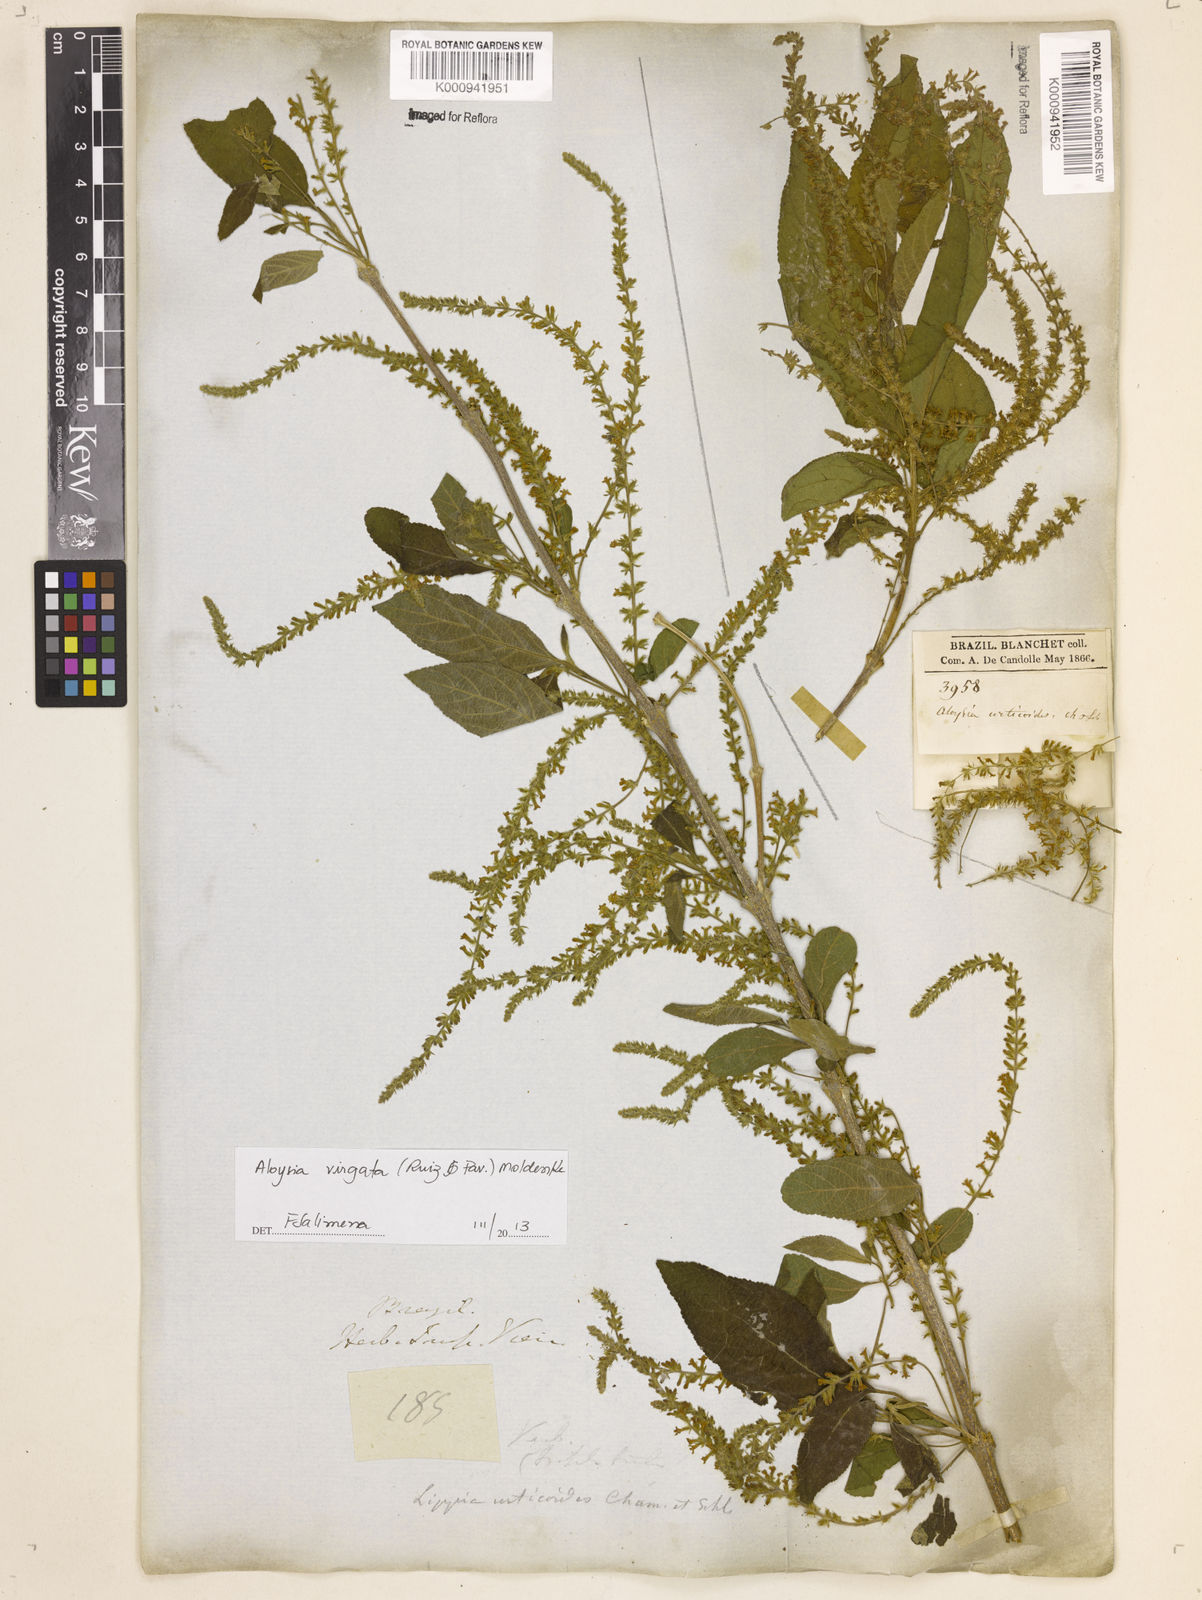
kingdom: Plantae
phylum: Tracheophyta
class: Magnoliopsida
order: Lamiales
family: Verbenaceae
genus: Aloysia
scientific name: Aloysia
